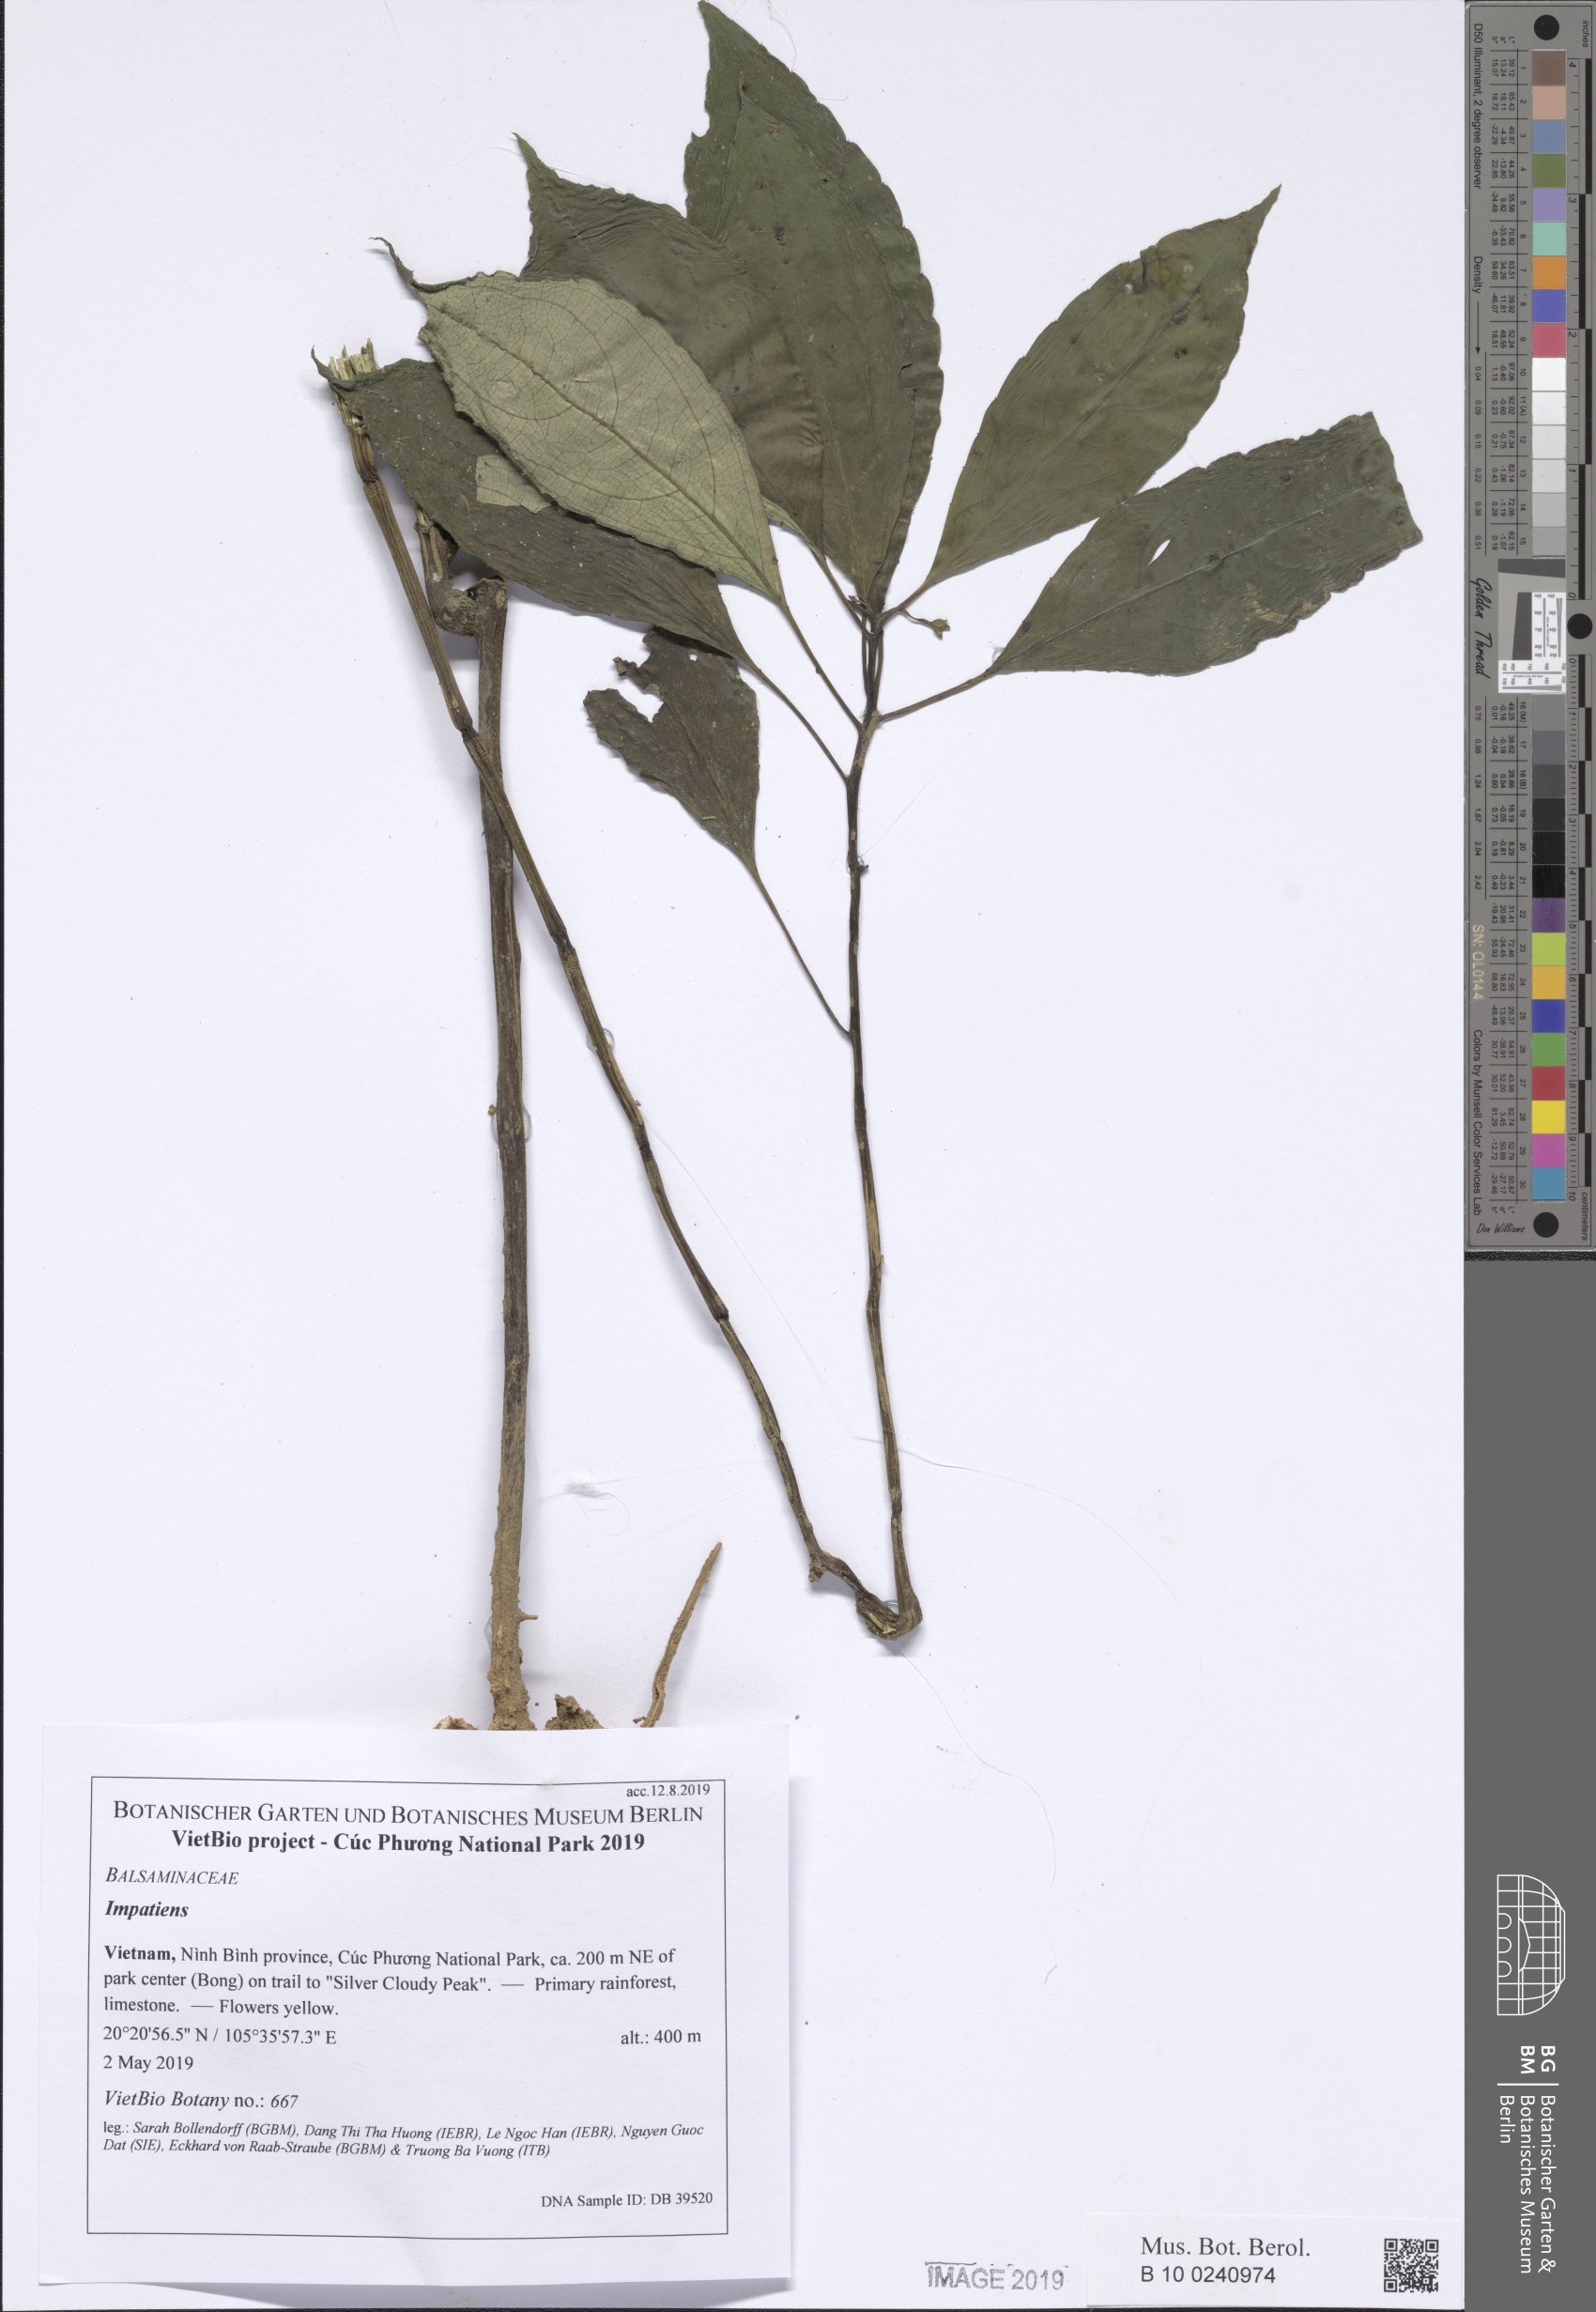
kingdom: Plantae
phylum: Tracheophyta
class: Magnoliopsida
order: Ericales
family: Balsaminaceae
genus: Impatiens
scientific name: Impatiens clavigera
